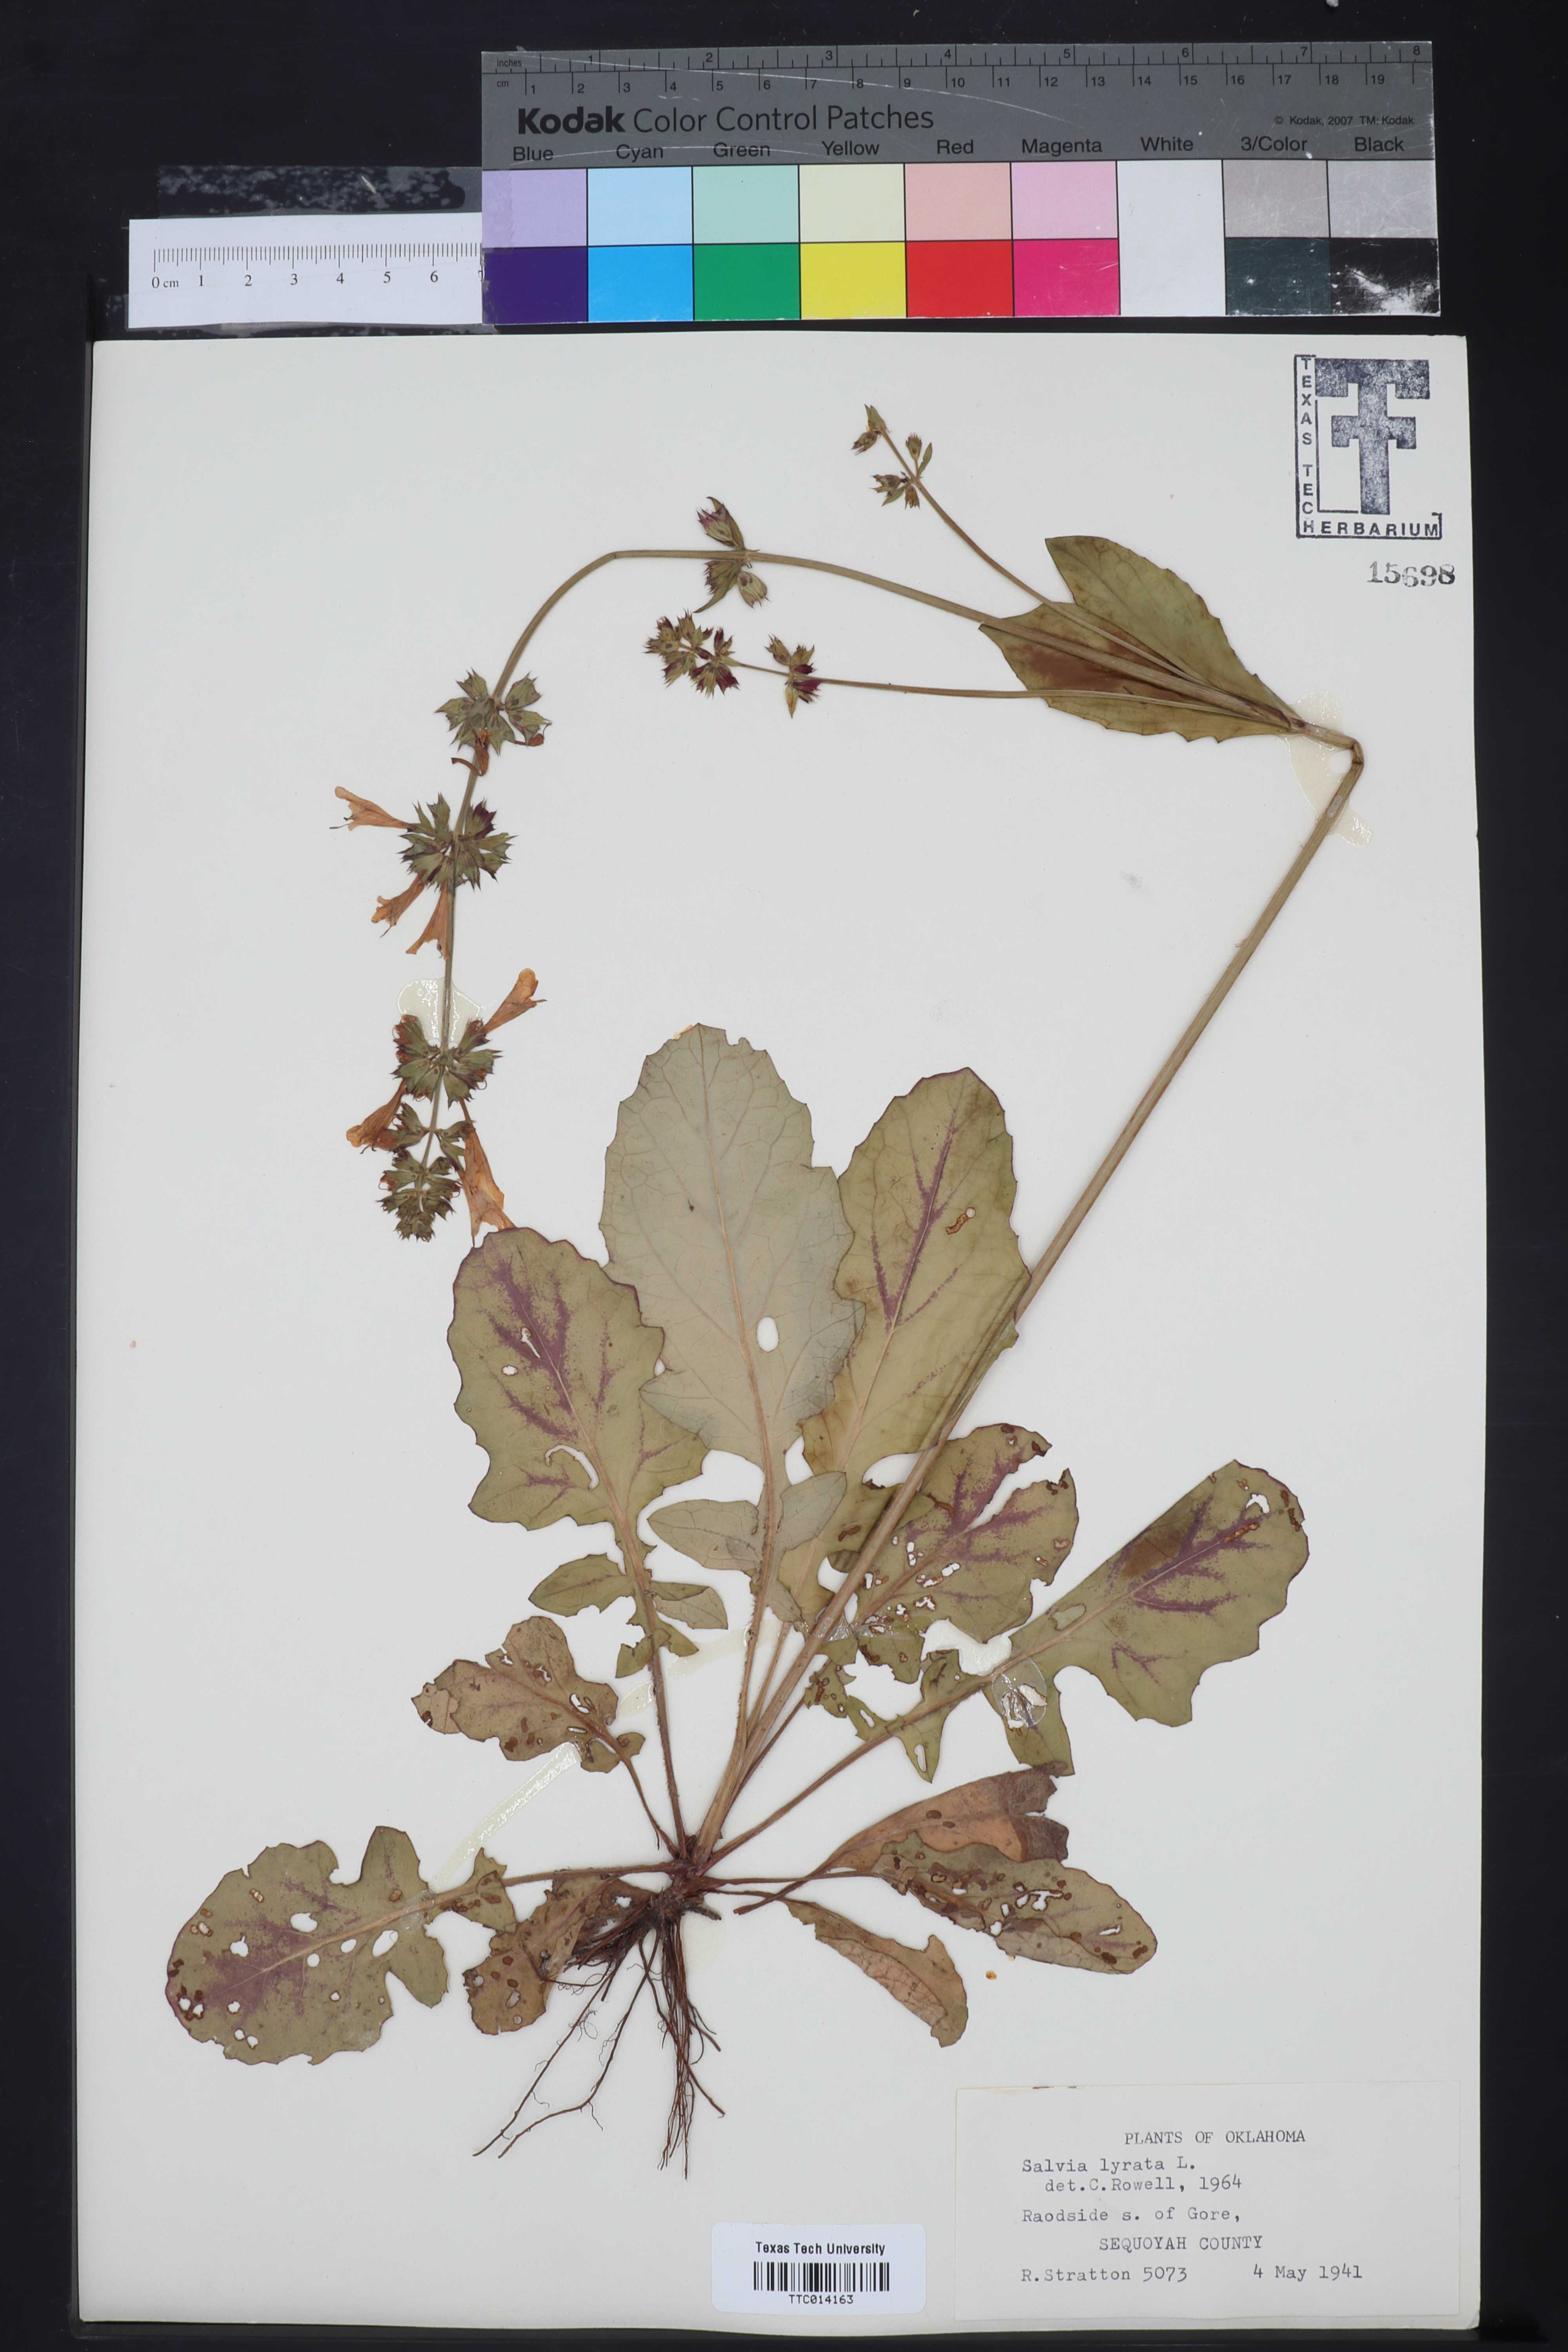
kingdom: Plantae
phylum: Tracheophyta
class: Magnoliopsida
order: Lamiales
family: Lamiaceae
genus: Salvia
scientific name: Salvia lyrata
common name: Cancerweed
